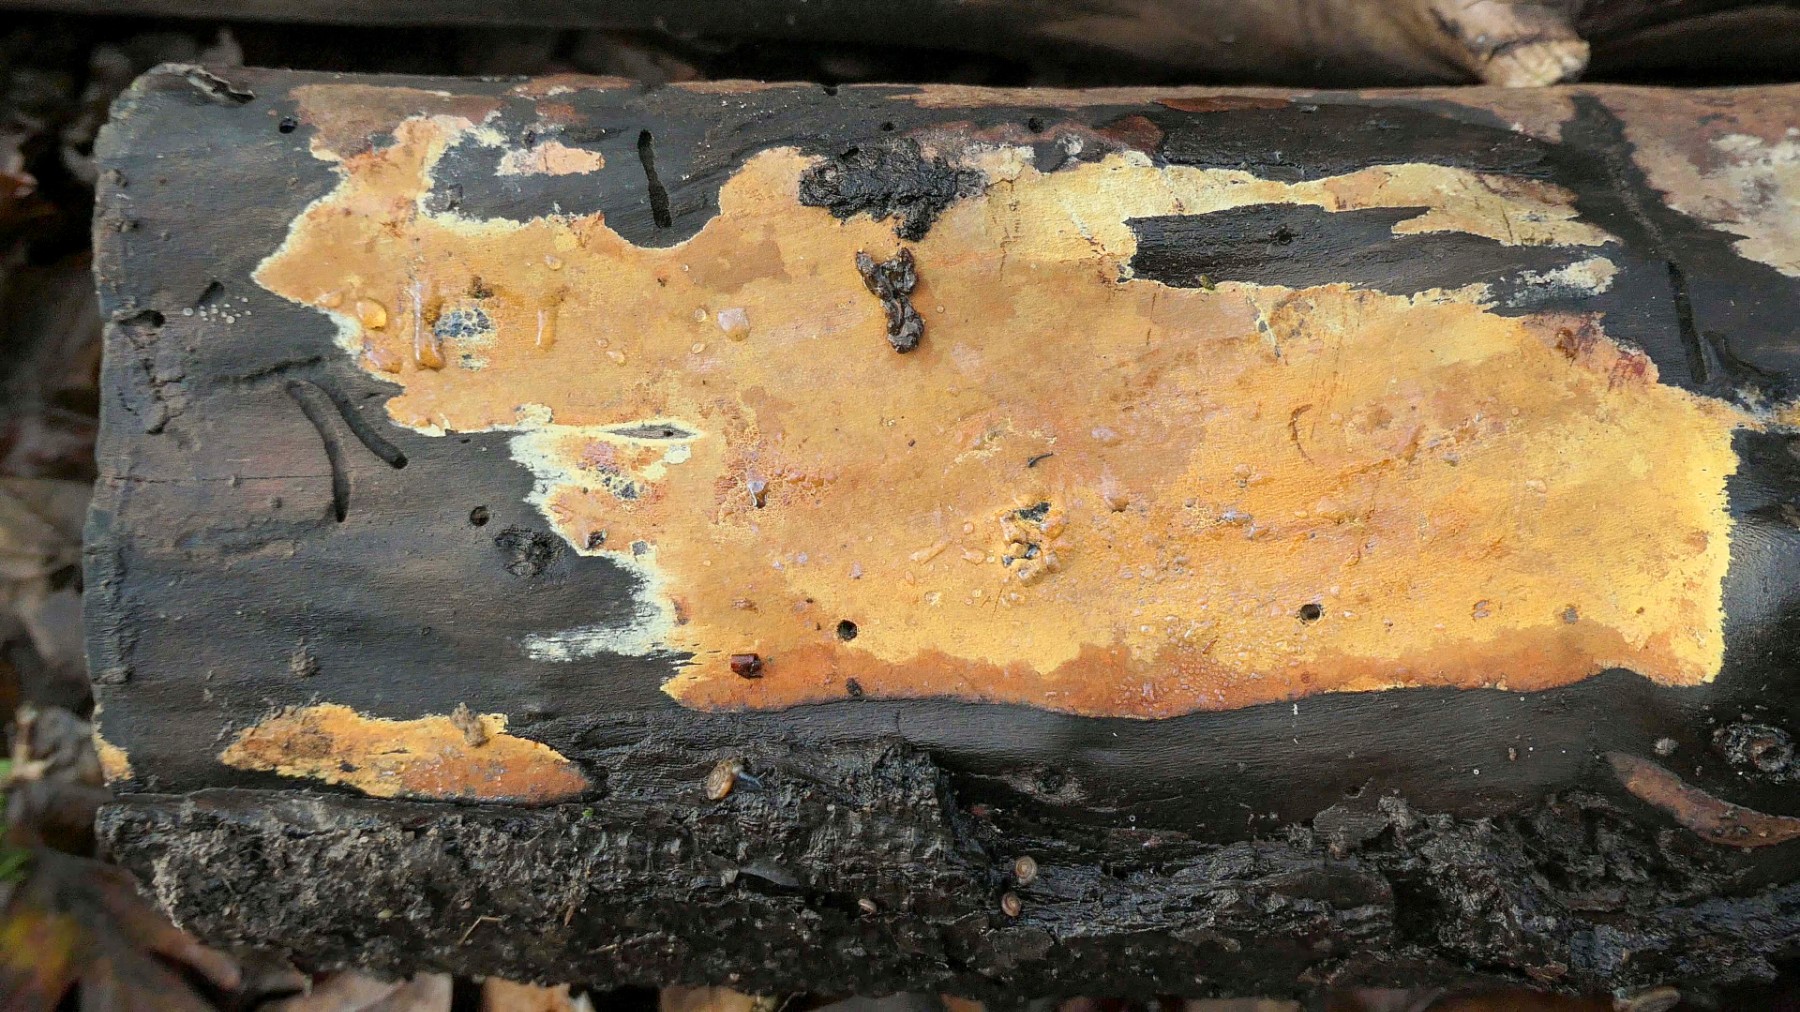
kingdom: Fungi
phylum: Ascomycota
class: Sordariomycetes
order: Xylariales
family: Hypoxylaceae
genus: Hypoxylon
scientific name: Hypoxylon
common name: kulbær
